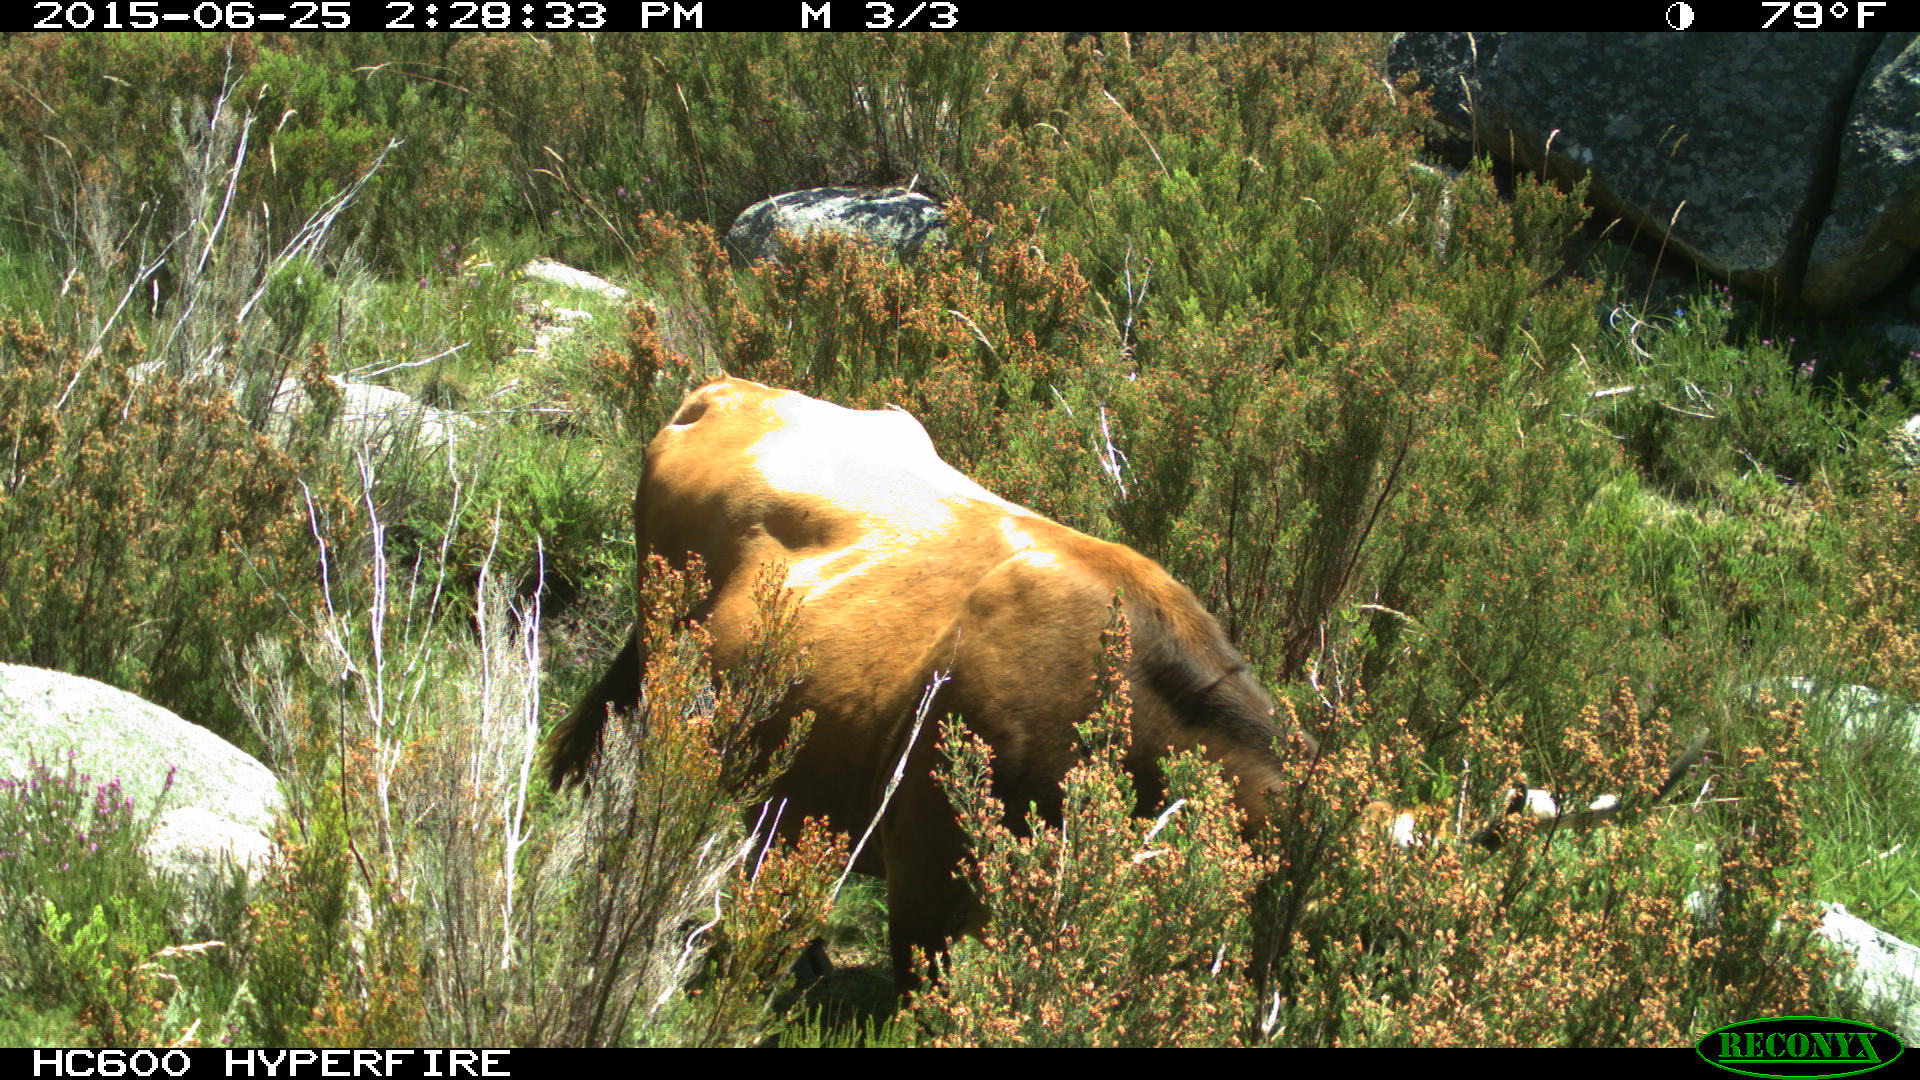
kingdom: Animalia
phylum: Chordata
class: Mammalia
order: Artiodactyla
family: Bovidae
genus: Bos
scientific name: Bos taurus
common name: Domesticated cattle
